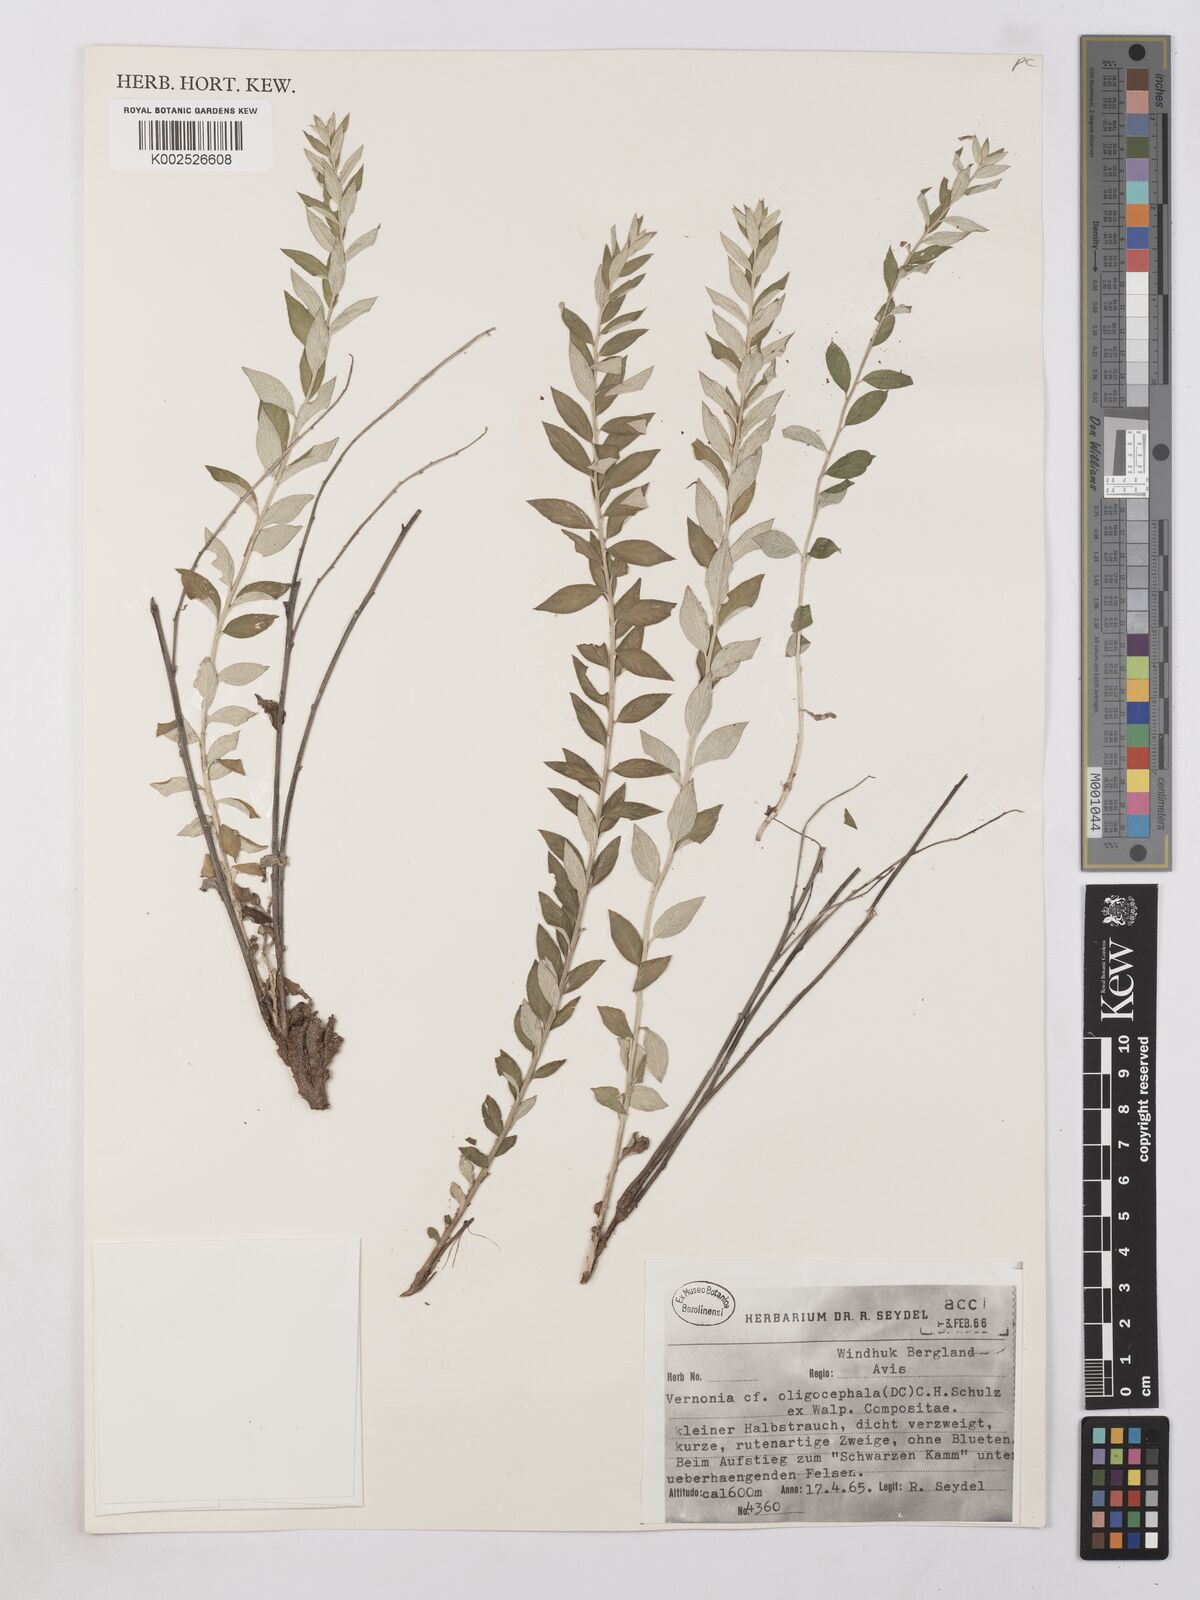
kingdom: Plantae
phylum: Tracheophyta
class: Magnoliopsida
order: Asterales
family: Asteraceae
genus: Lepidaploa
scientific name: Lepidaploa aurea
